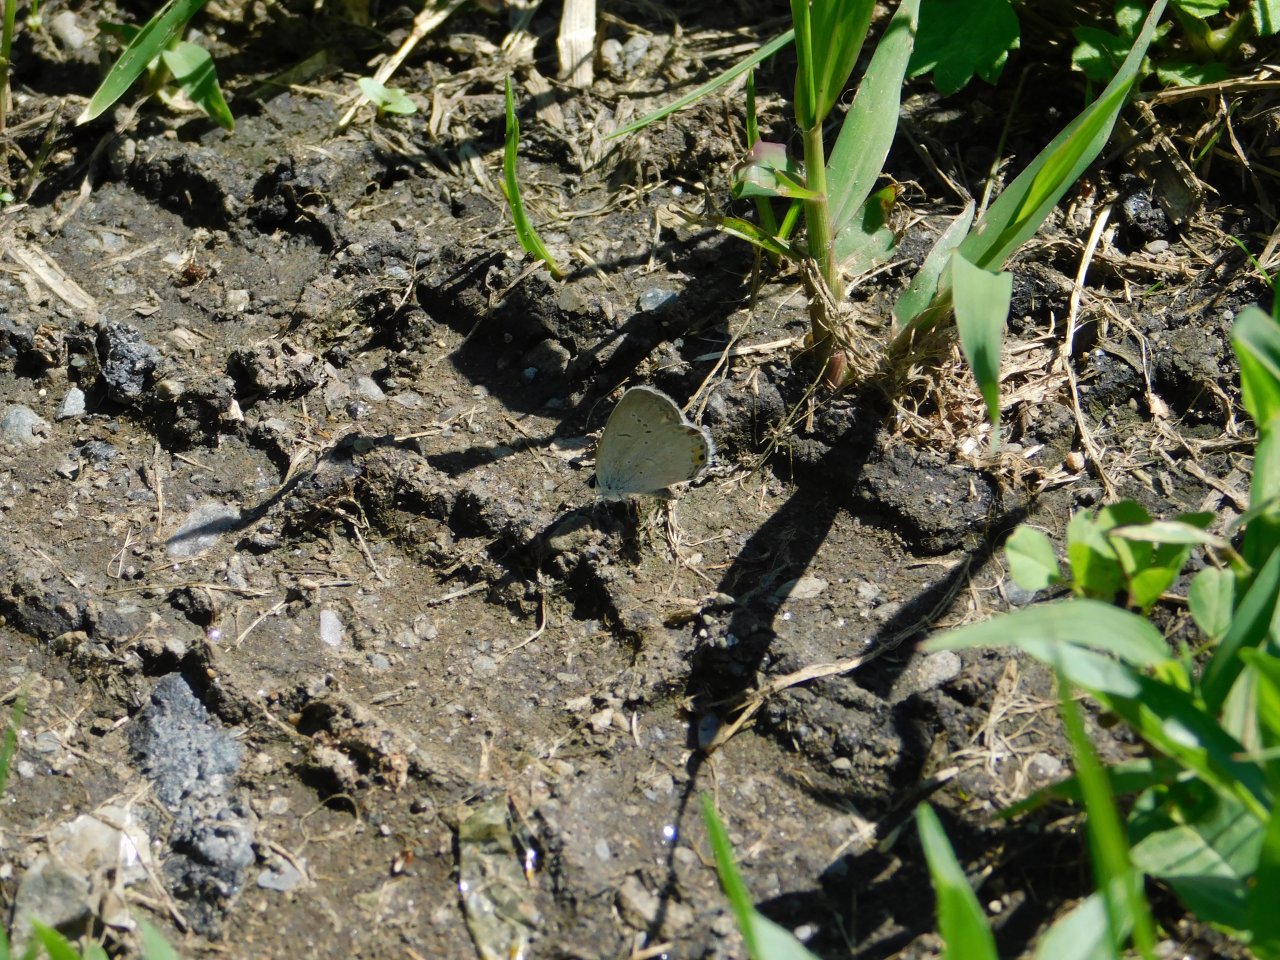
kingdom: Animalia
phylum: Arthropoda
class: Insecta
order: Lepidoptera
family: Lycaenidae
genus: Elkalyce
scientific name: Elkalyce comyntas
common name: Eastern Tailed-Blue
